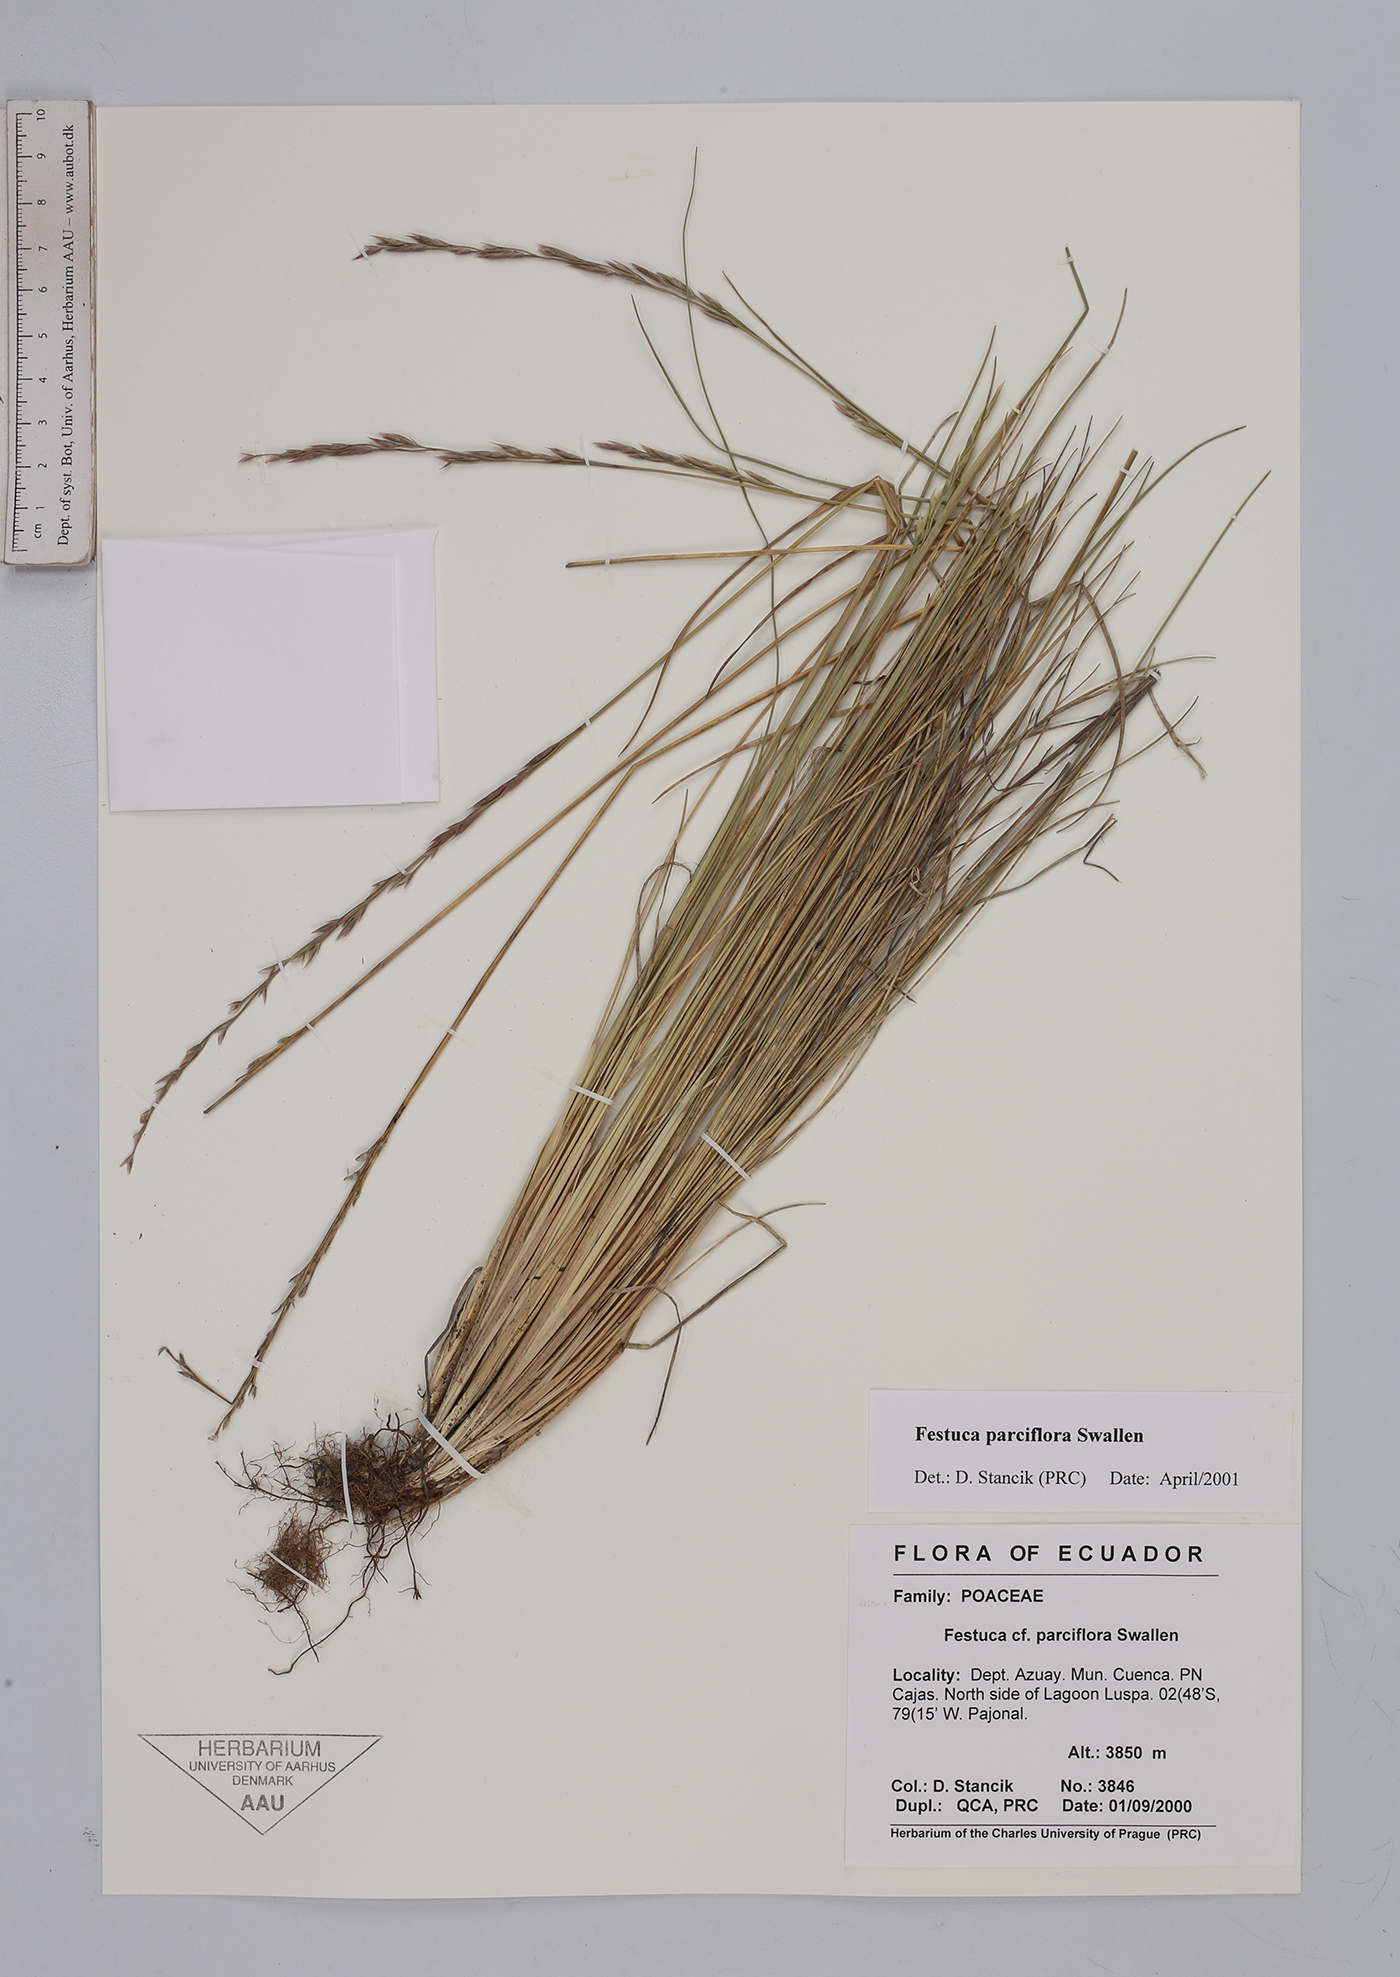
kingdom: Plantae
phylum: Tracheophyta
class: Liliopsida
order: Poales
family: Poaceae
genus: Festuca
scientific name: Festuca parciflora
